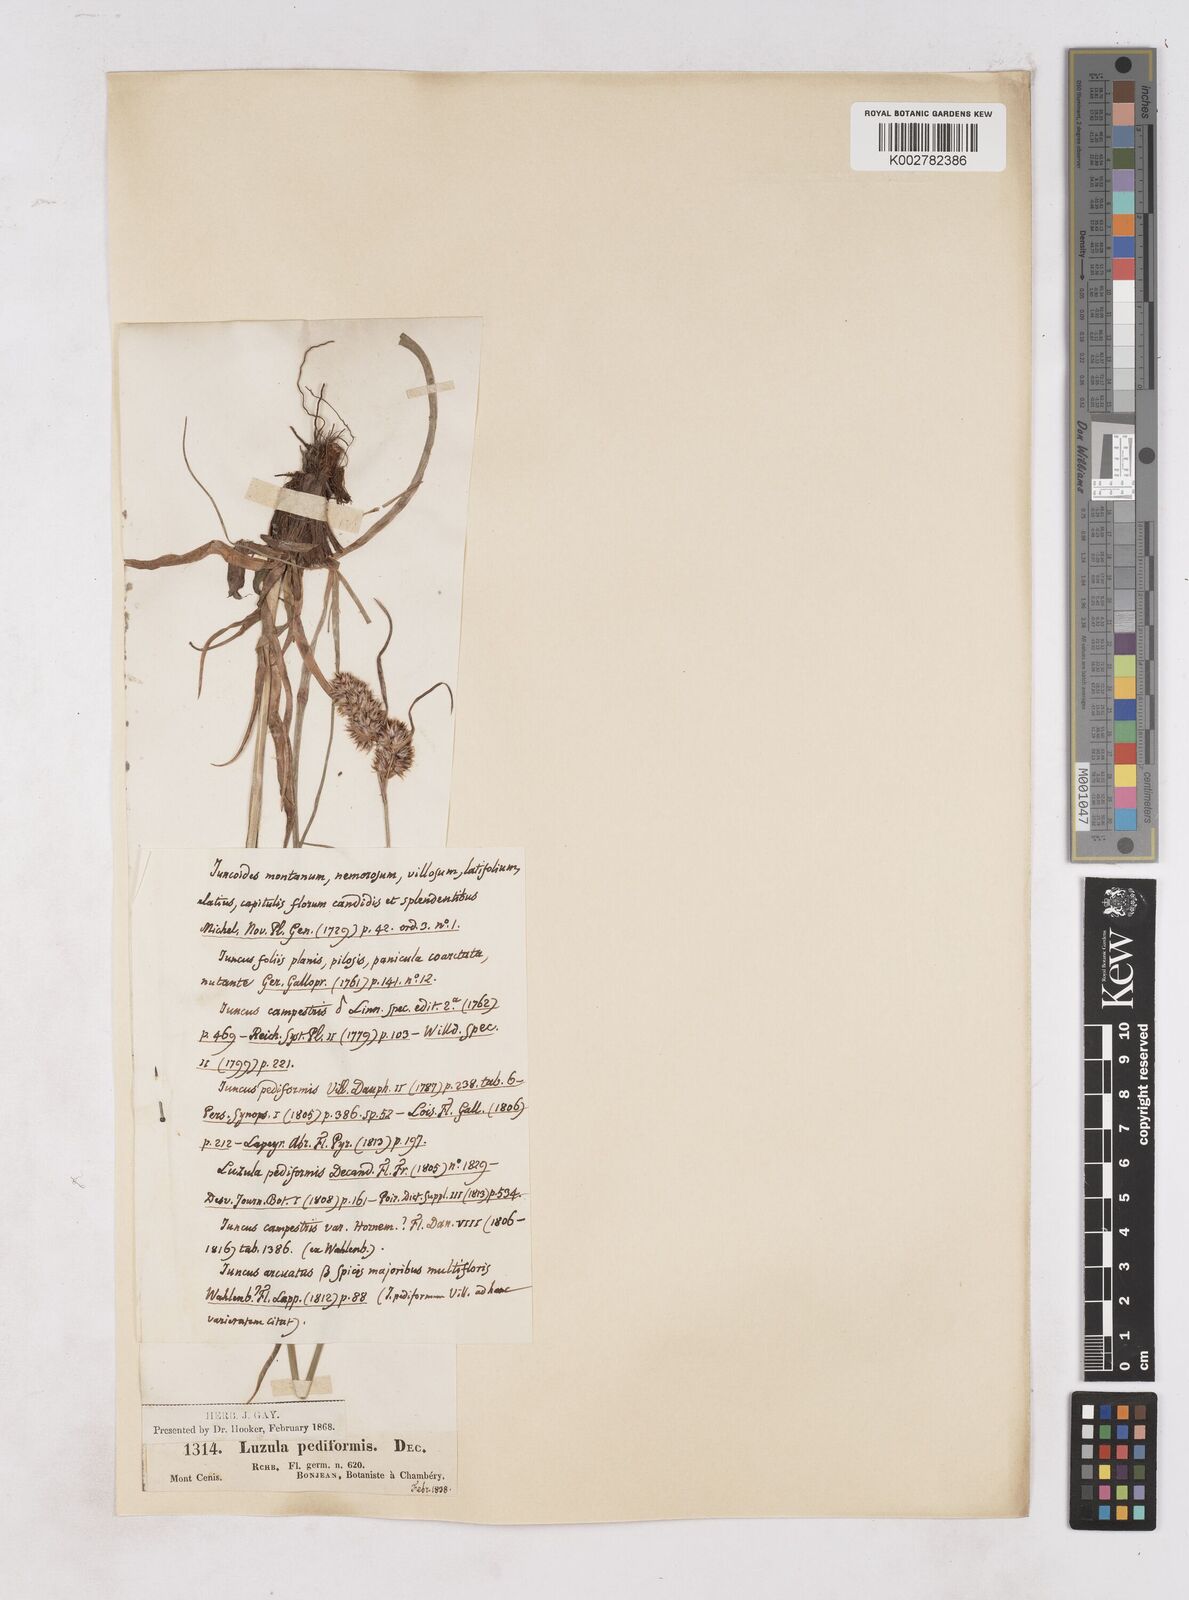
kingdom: Plantae
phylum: Tracheophyta
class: Liliopsida
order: Poales
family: Juncaceae
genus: Luzula
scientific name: Luzula pediformis
